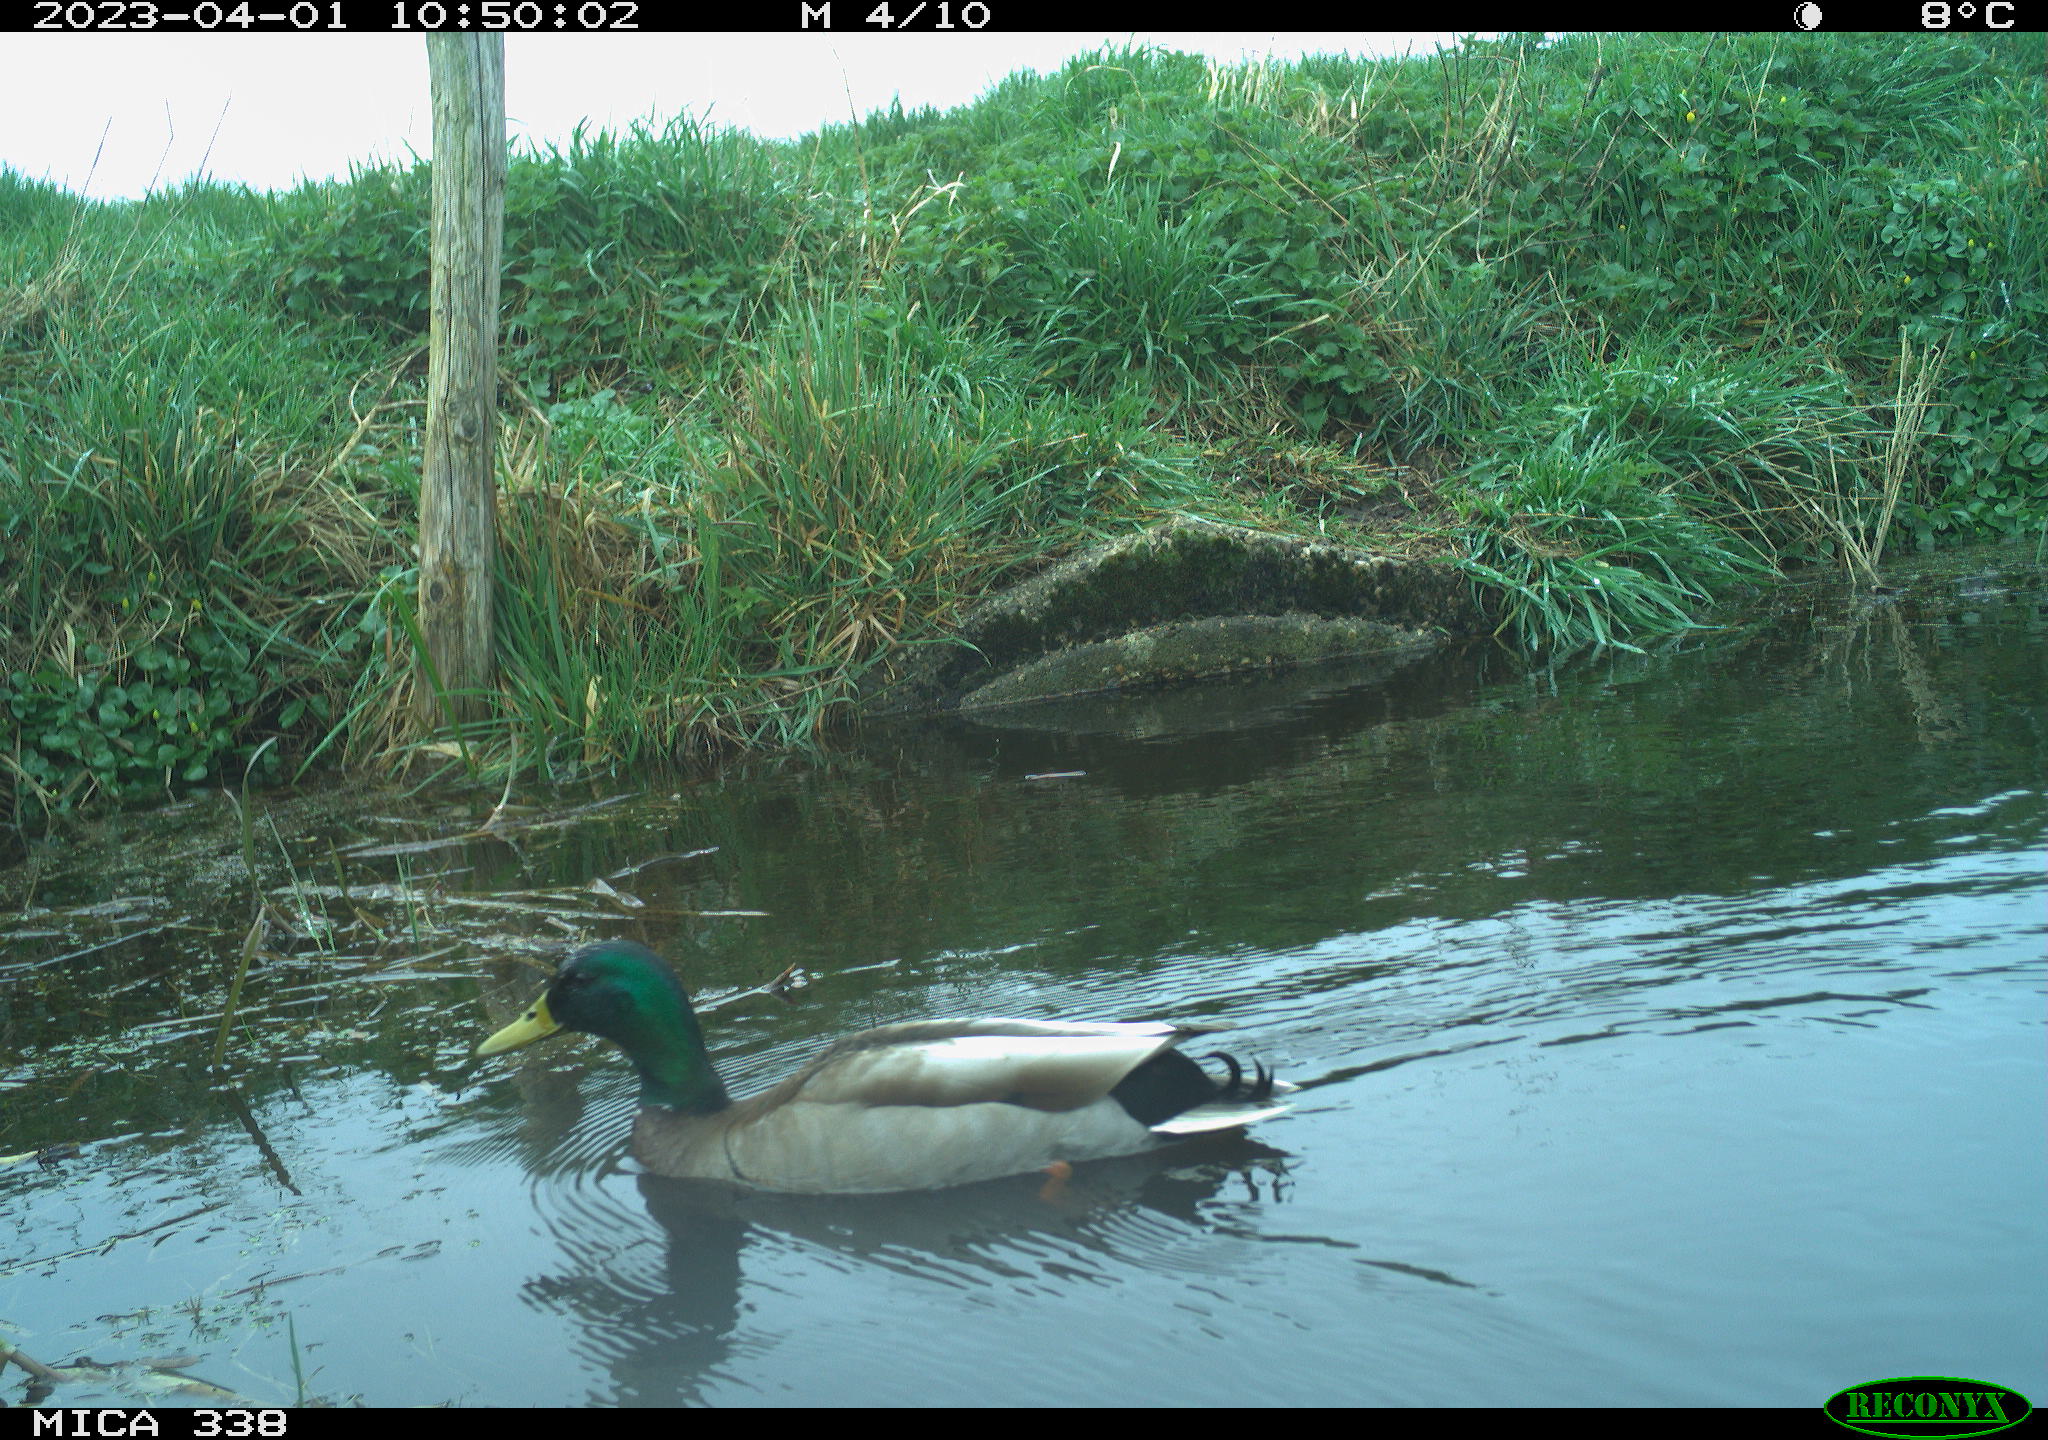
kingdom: Animalia
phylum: Chordata
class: Aves
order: Anseriformes
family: Anatidae
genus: Anas
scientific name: Anas
